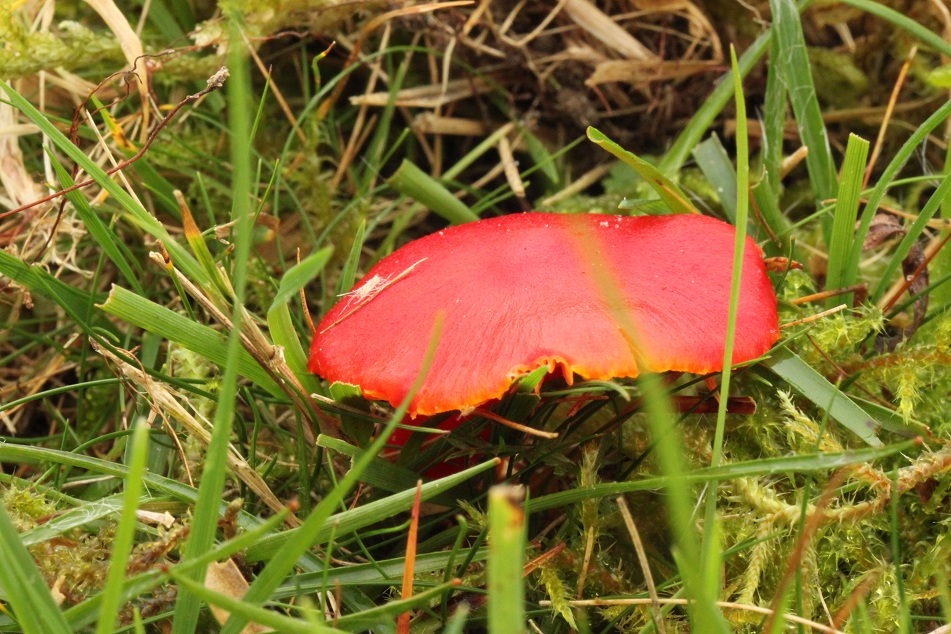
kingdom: Fungi
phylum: Basidiomycota
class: Agaricomycetes
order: Agaricales
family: Hygrophoraceae
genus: Hygrocybe
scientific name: Hygrocybe coccinea
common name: cinnober-vokshat
